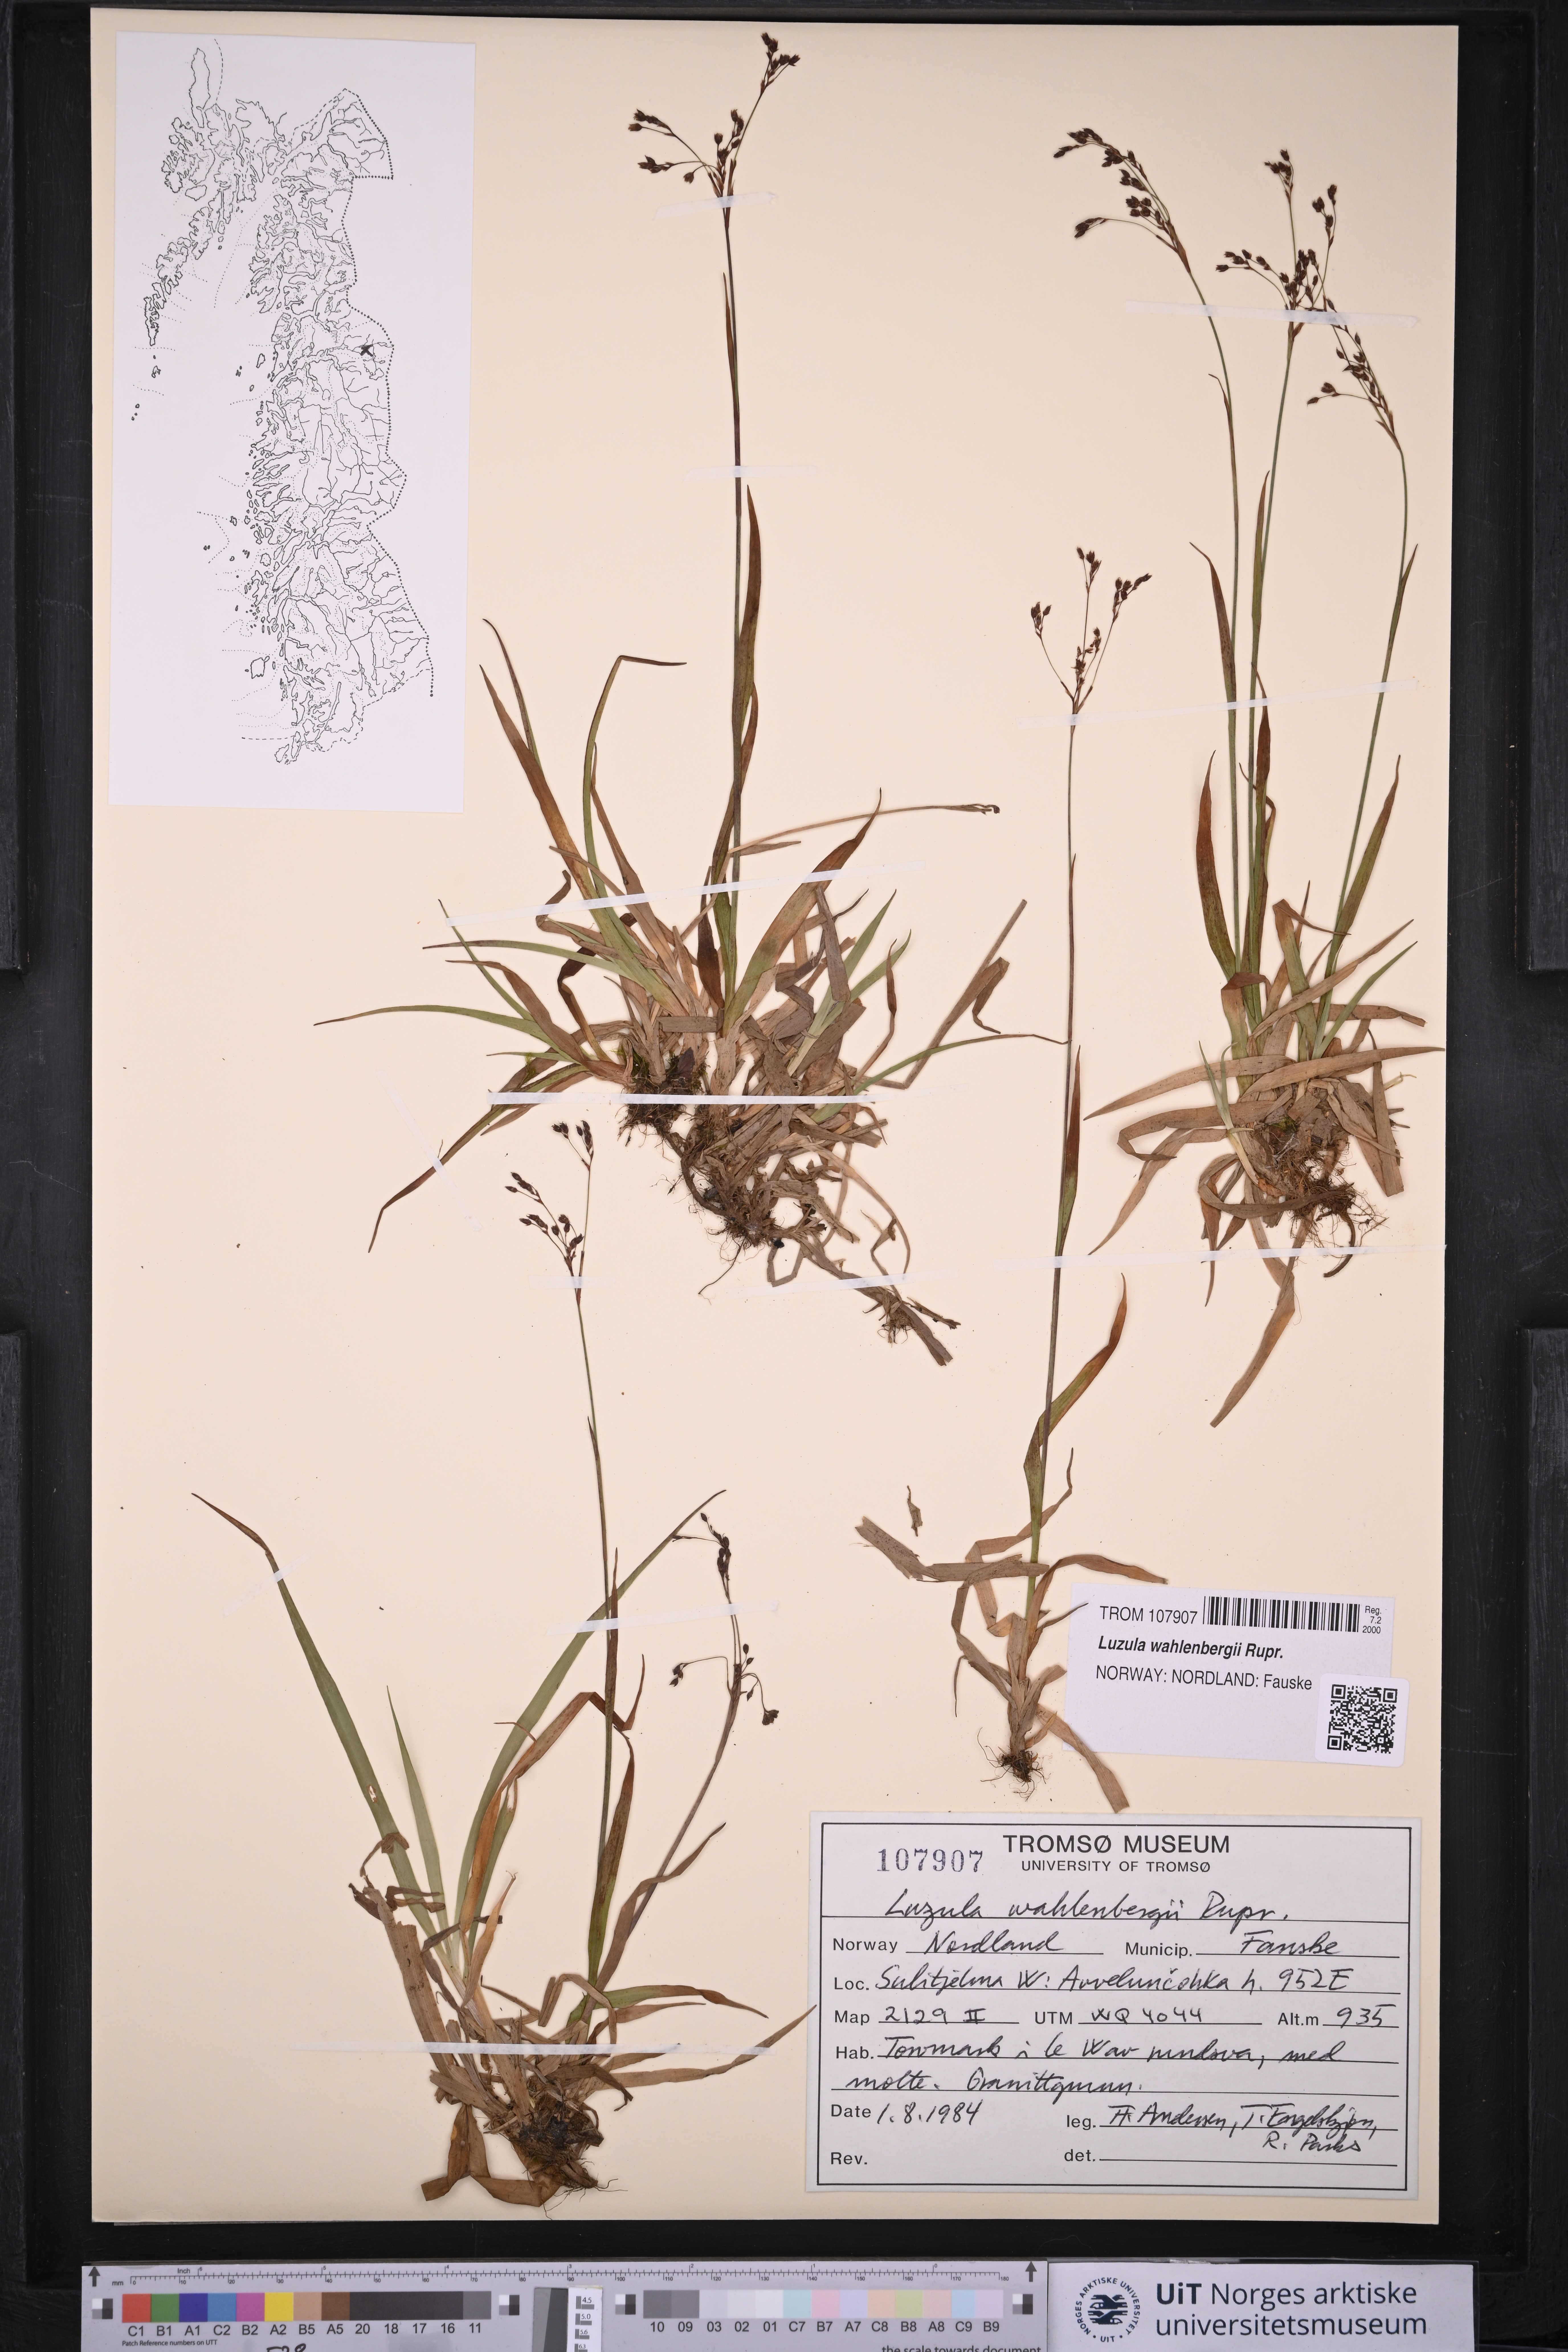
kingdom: Plantae
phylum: Tracheophyta
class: Liliopsida
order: Poales
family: Juncaceae
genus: Luzula
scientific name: Luzula wahlenbergii
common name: Wahlenberg's wood-rush
